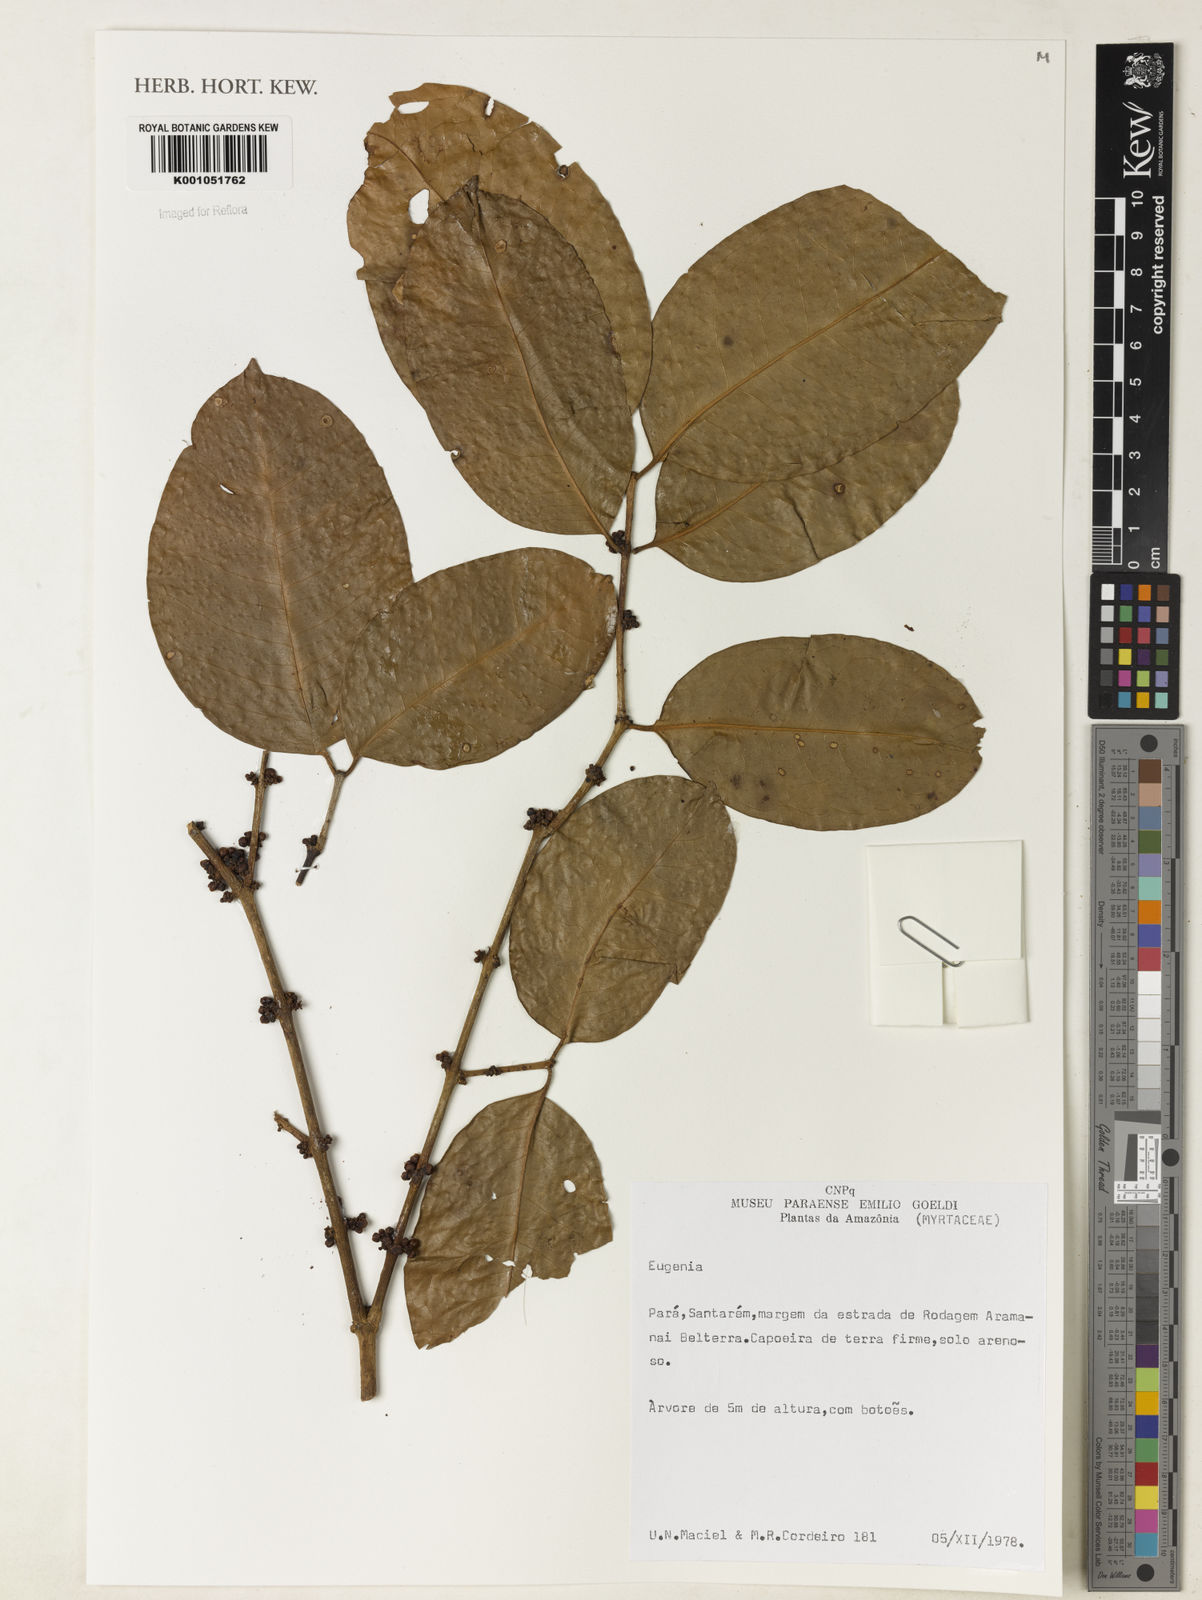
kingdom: Plantae
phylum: Tracheophyta
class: Magnoliopsida
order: Myrtales
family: Myrtaceae
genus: Eugenia
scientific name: Eugenia citrifolia
